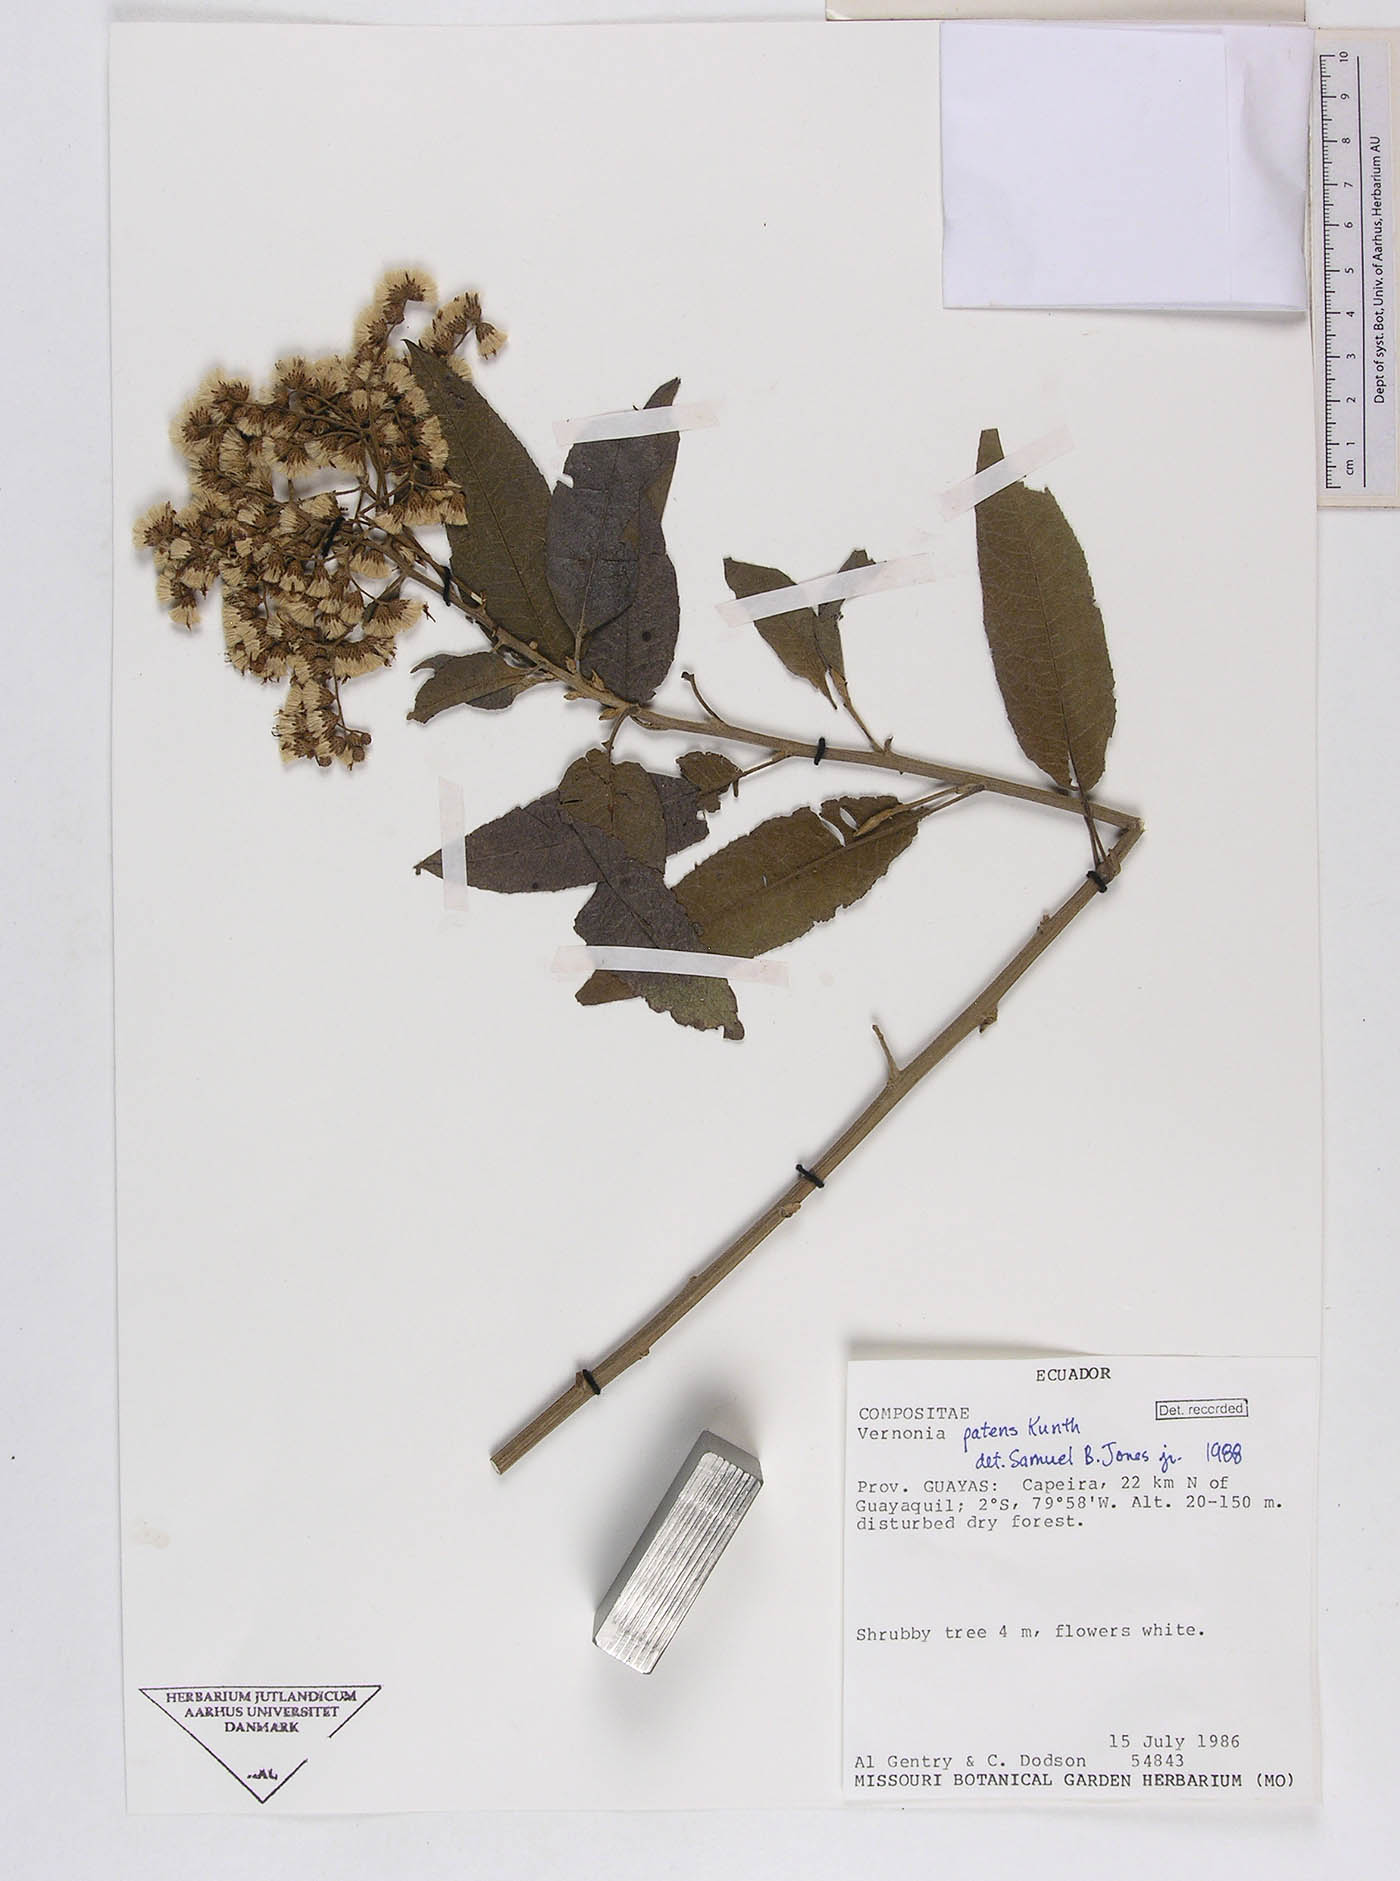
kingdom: Plantae
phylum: Tracheophyta
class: Magnoliopsida
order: Asterales
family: Asteraceae
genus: Vernonanthura
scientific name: Vernonanthura patens
